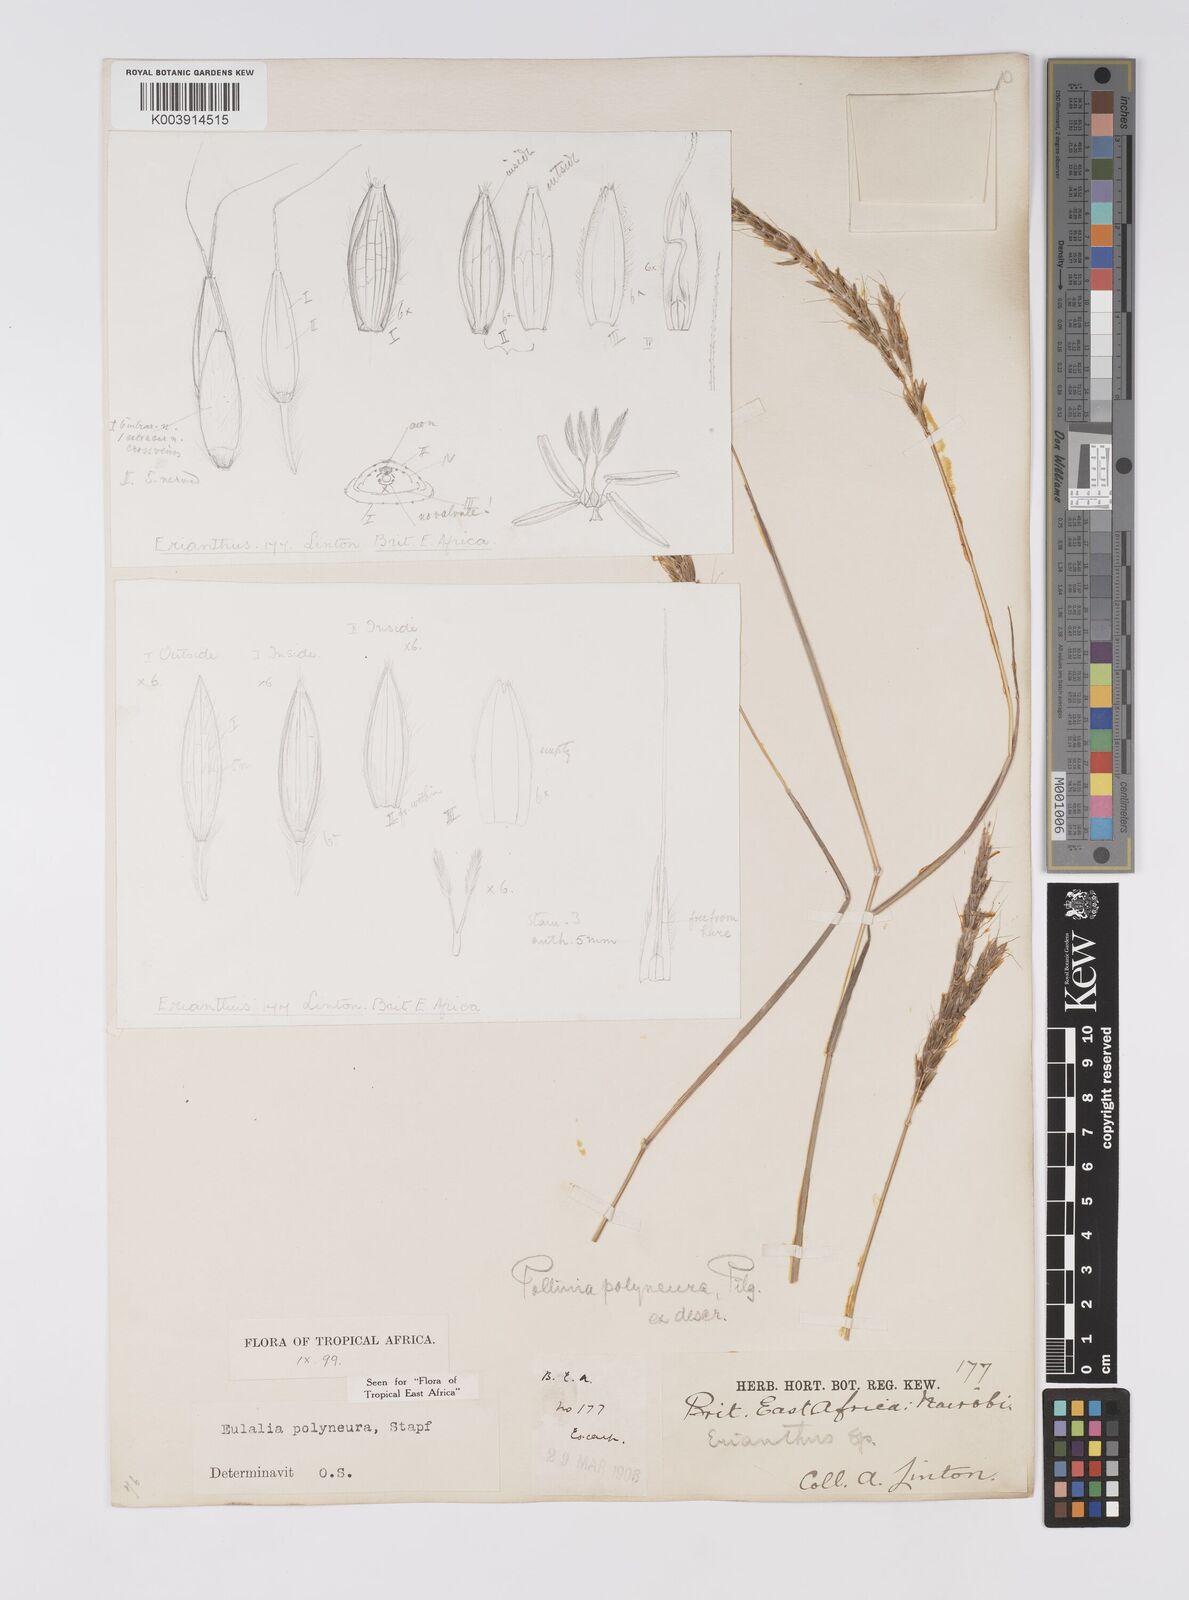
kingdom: Plantae
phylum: Tracheophyta
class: Liliopsida
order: Poales
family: Poaceae
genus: Eulalia
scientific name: Eulalia polyneura
